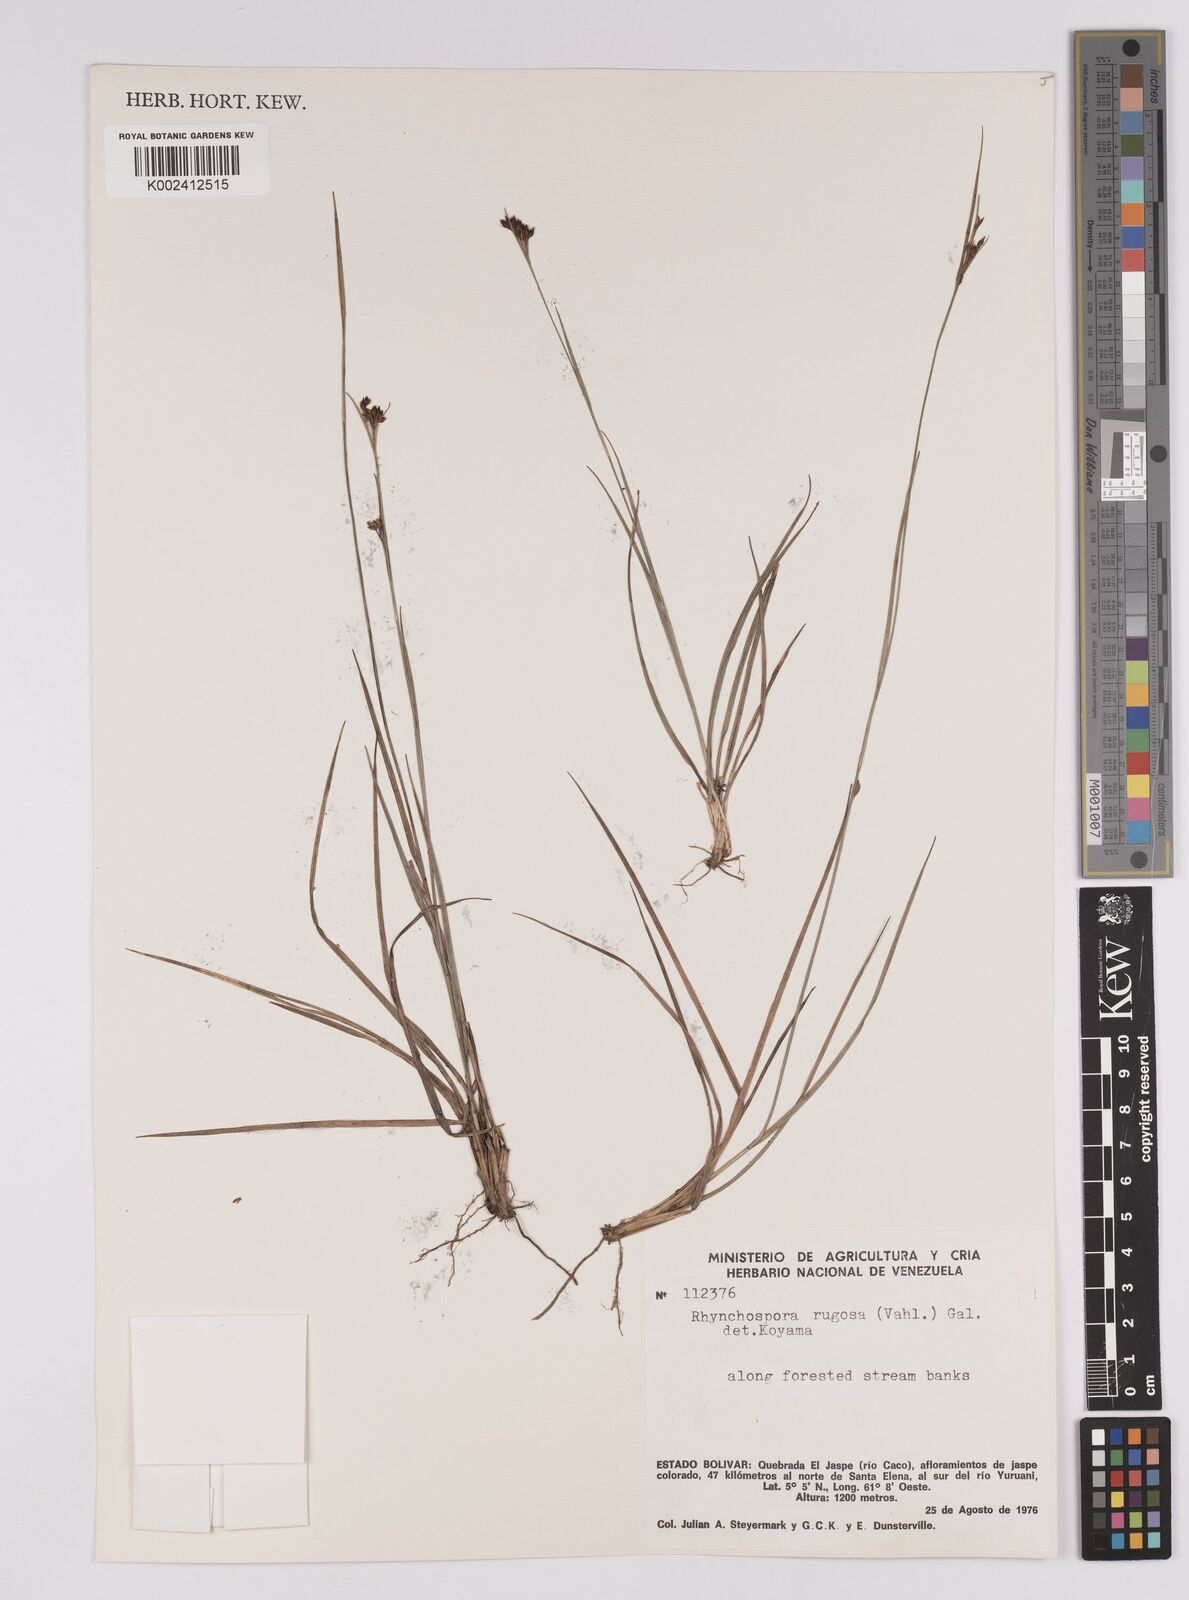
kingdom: Plantae
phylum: Tracheophyta
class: Liliopsida
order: Poales
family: Cyperaceae
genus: Rhynchospora
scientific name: Rhynchospora rugosa
